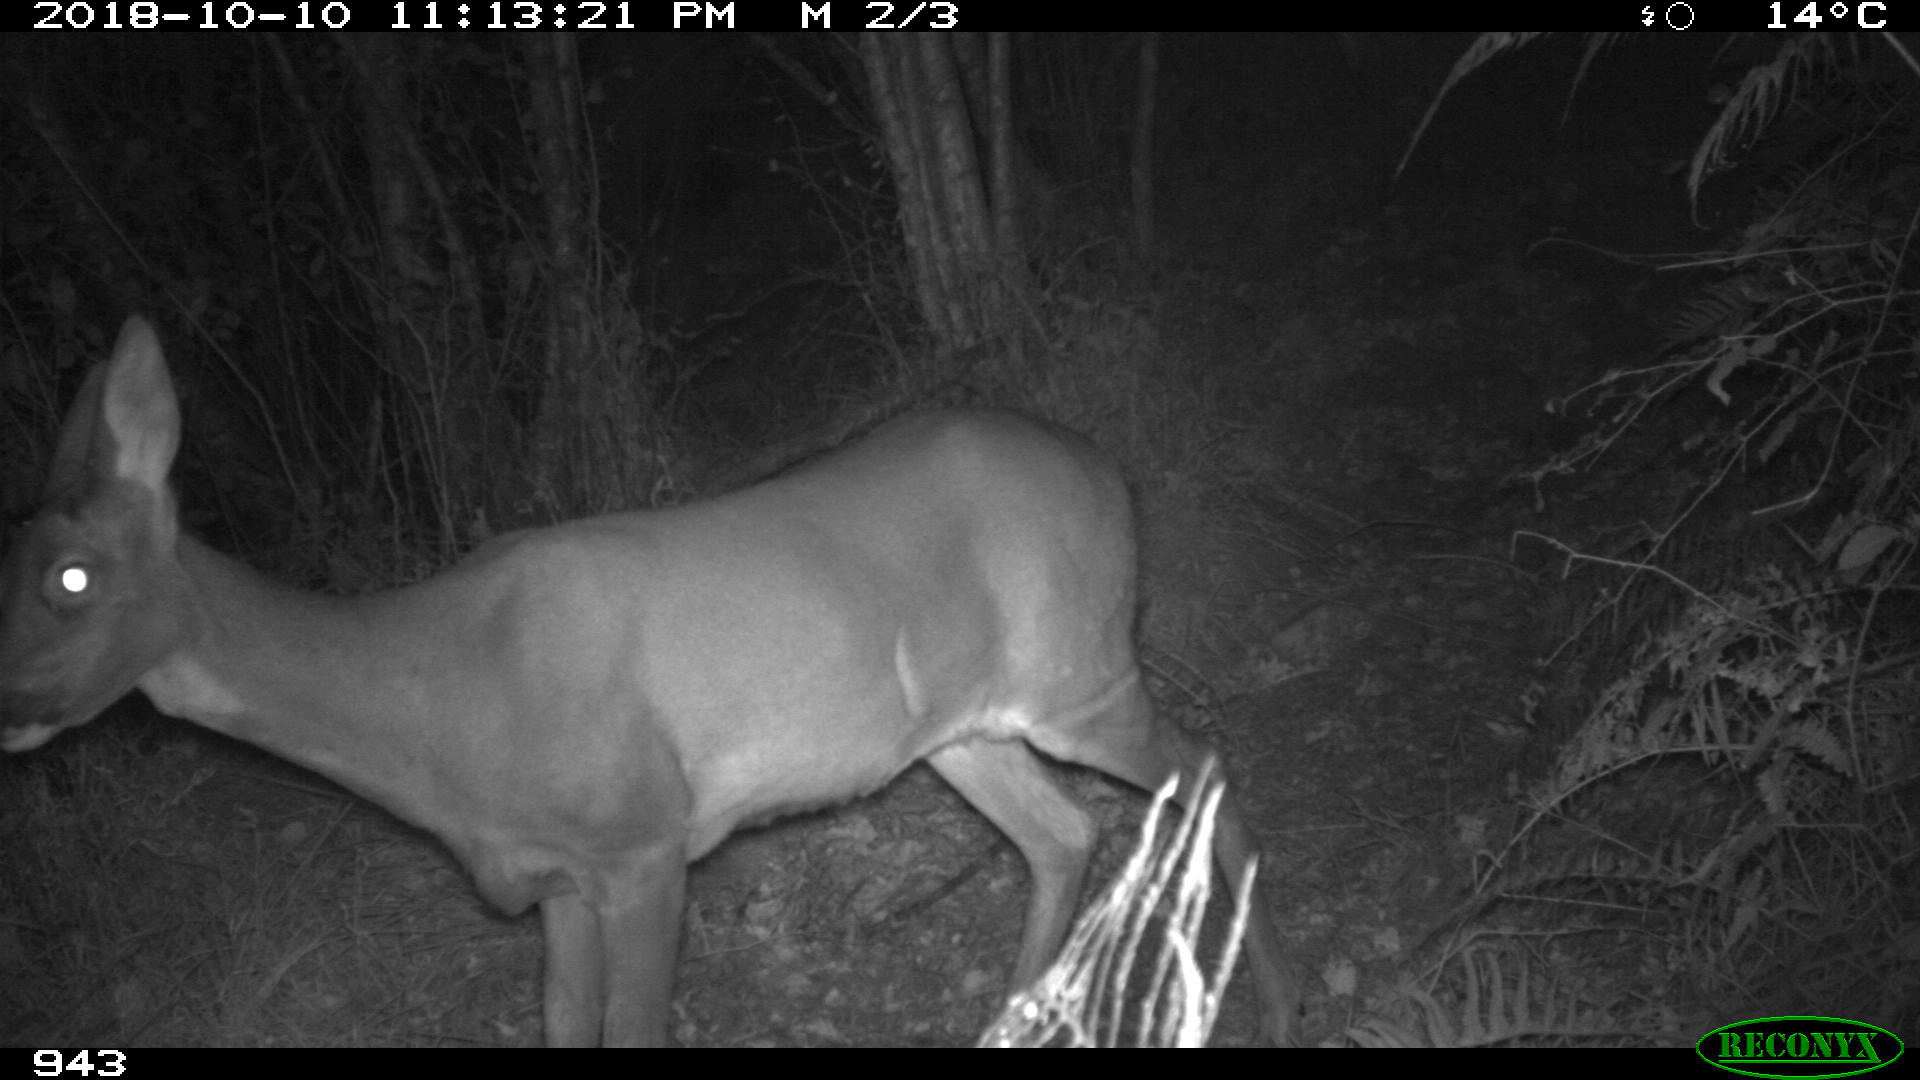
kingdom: Animalia
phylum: Chordata
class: Mammalia
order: Artiodactyla
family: Cervidae
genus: Capreolus
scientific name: Capreolus capreolus
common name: Western roe deer
